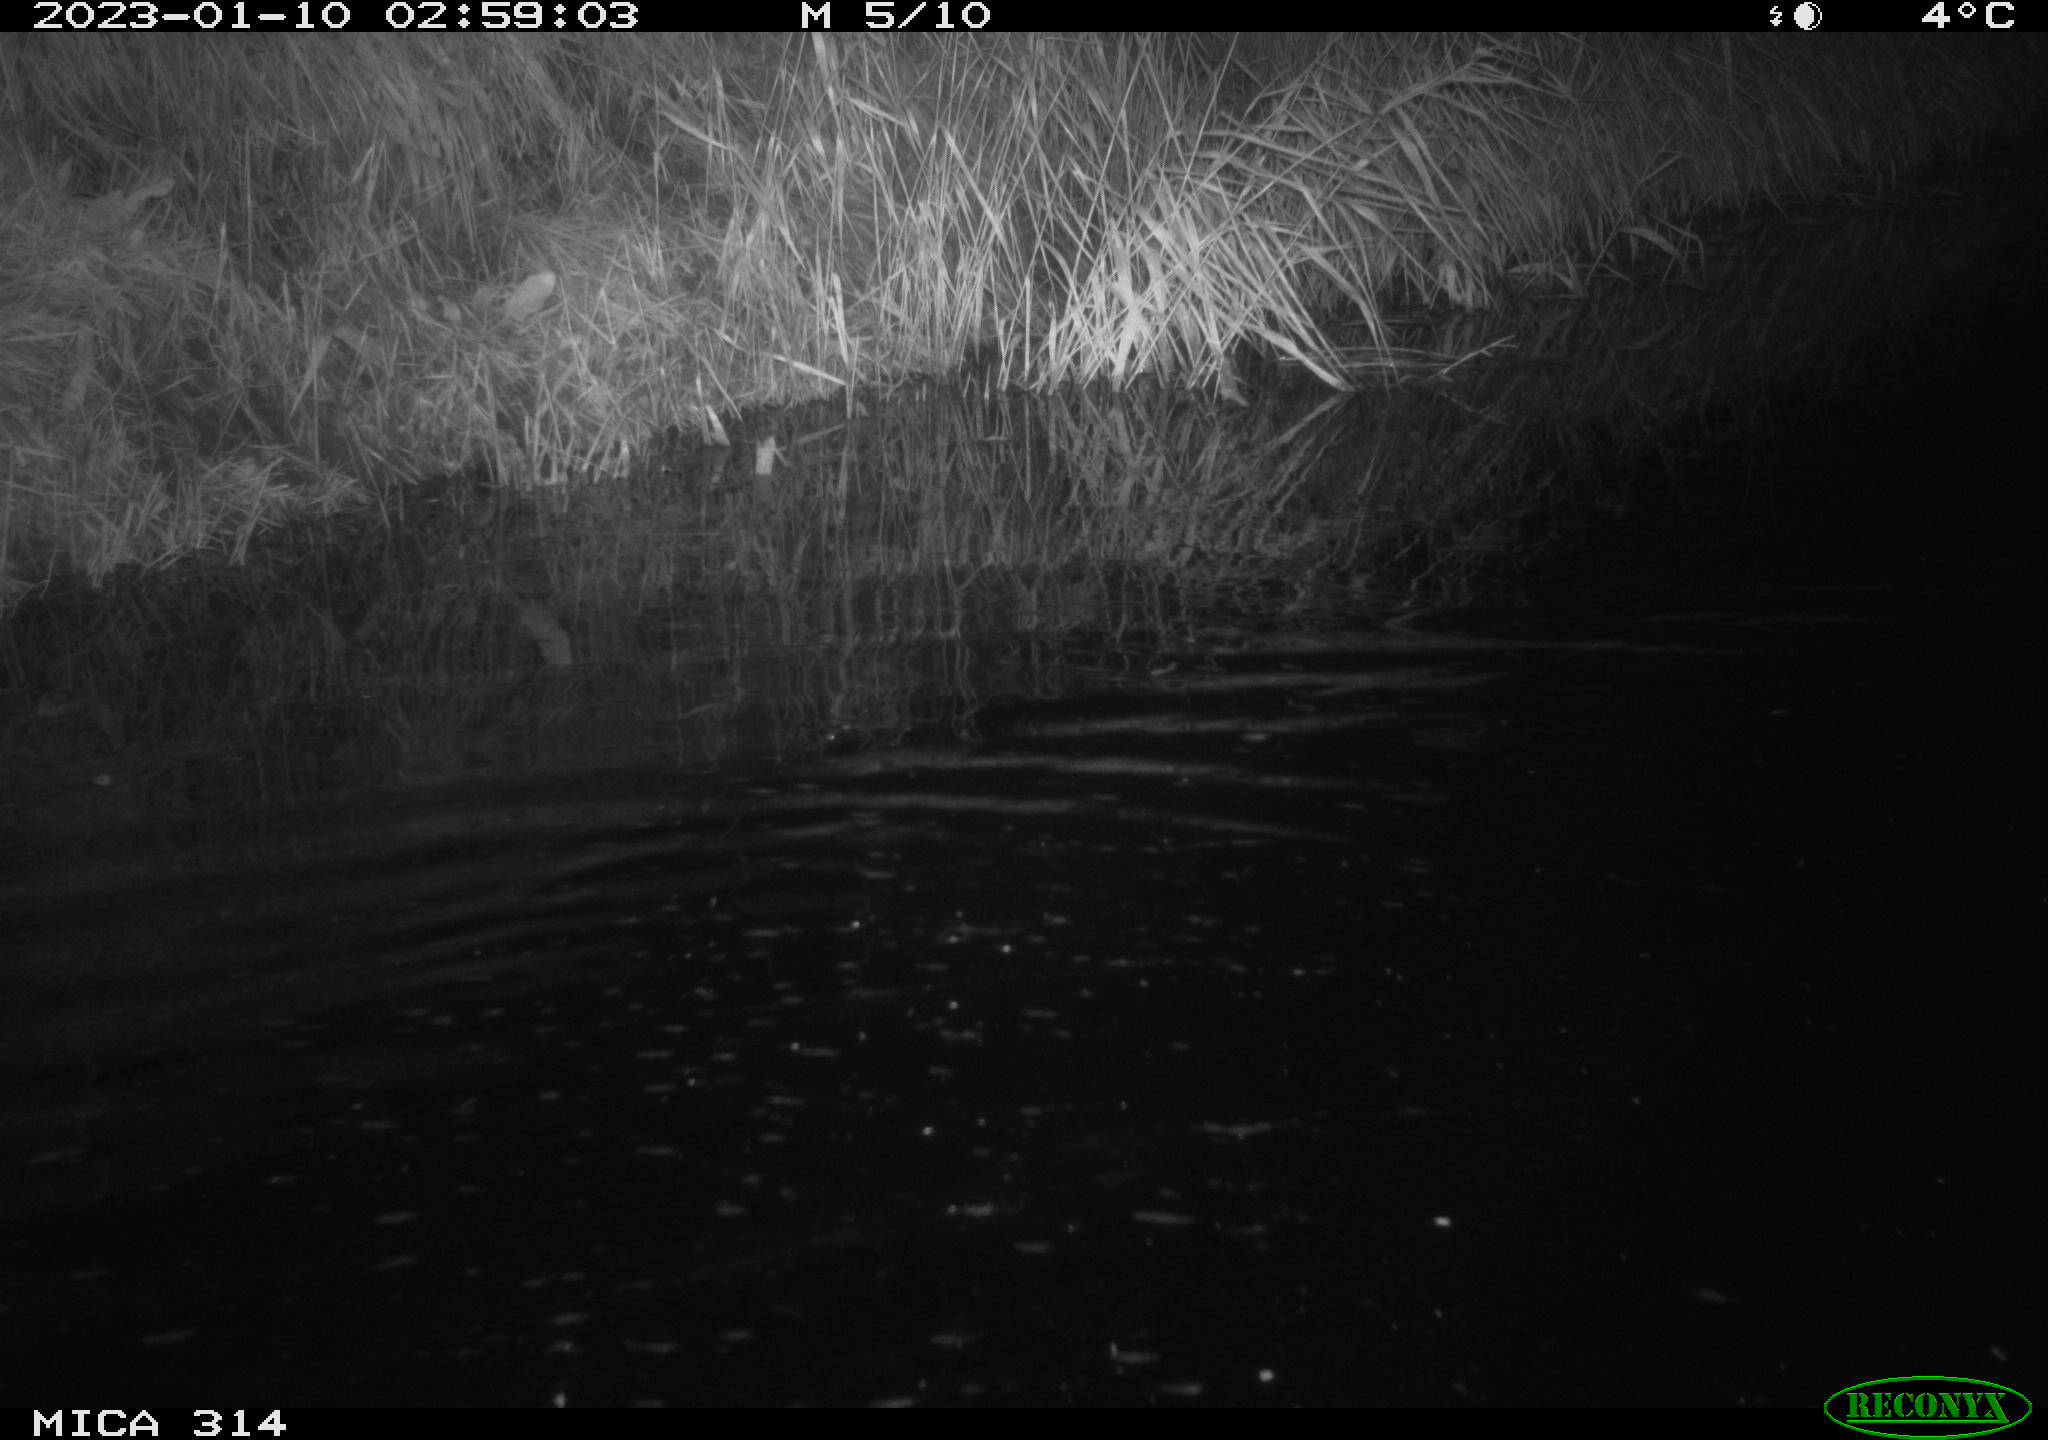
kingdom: Animalia
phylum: Chordata
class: Mammalia
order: Rodentia
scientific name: Rodentia
